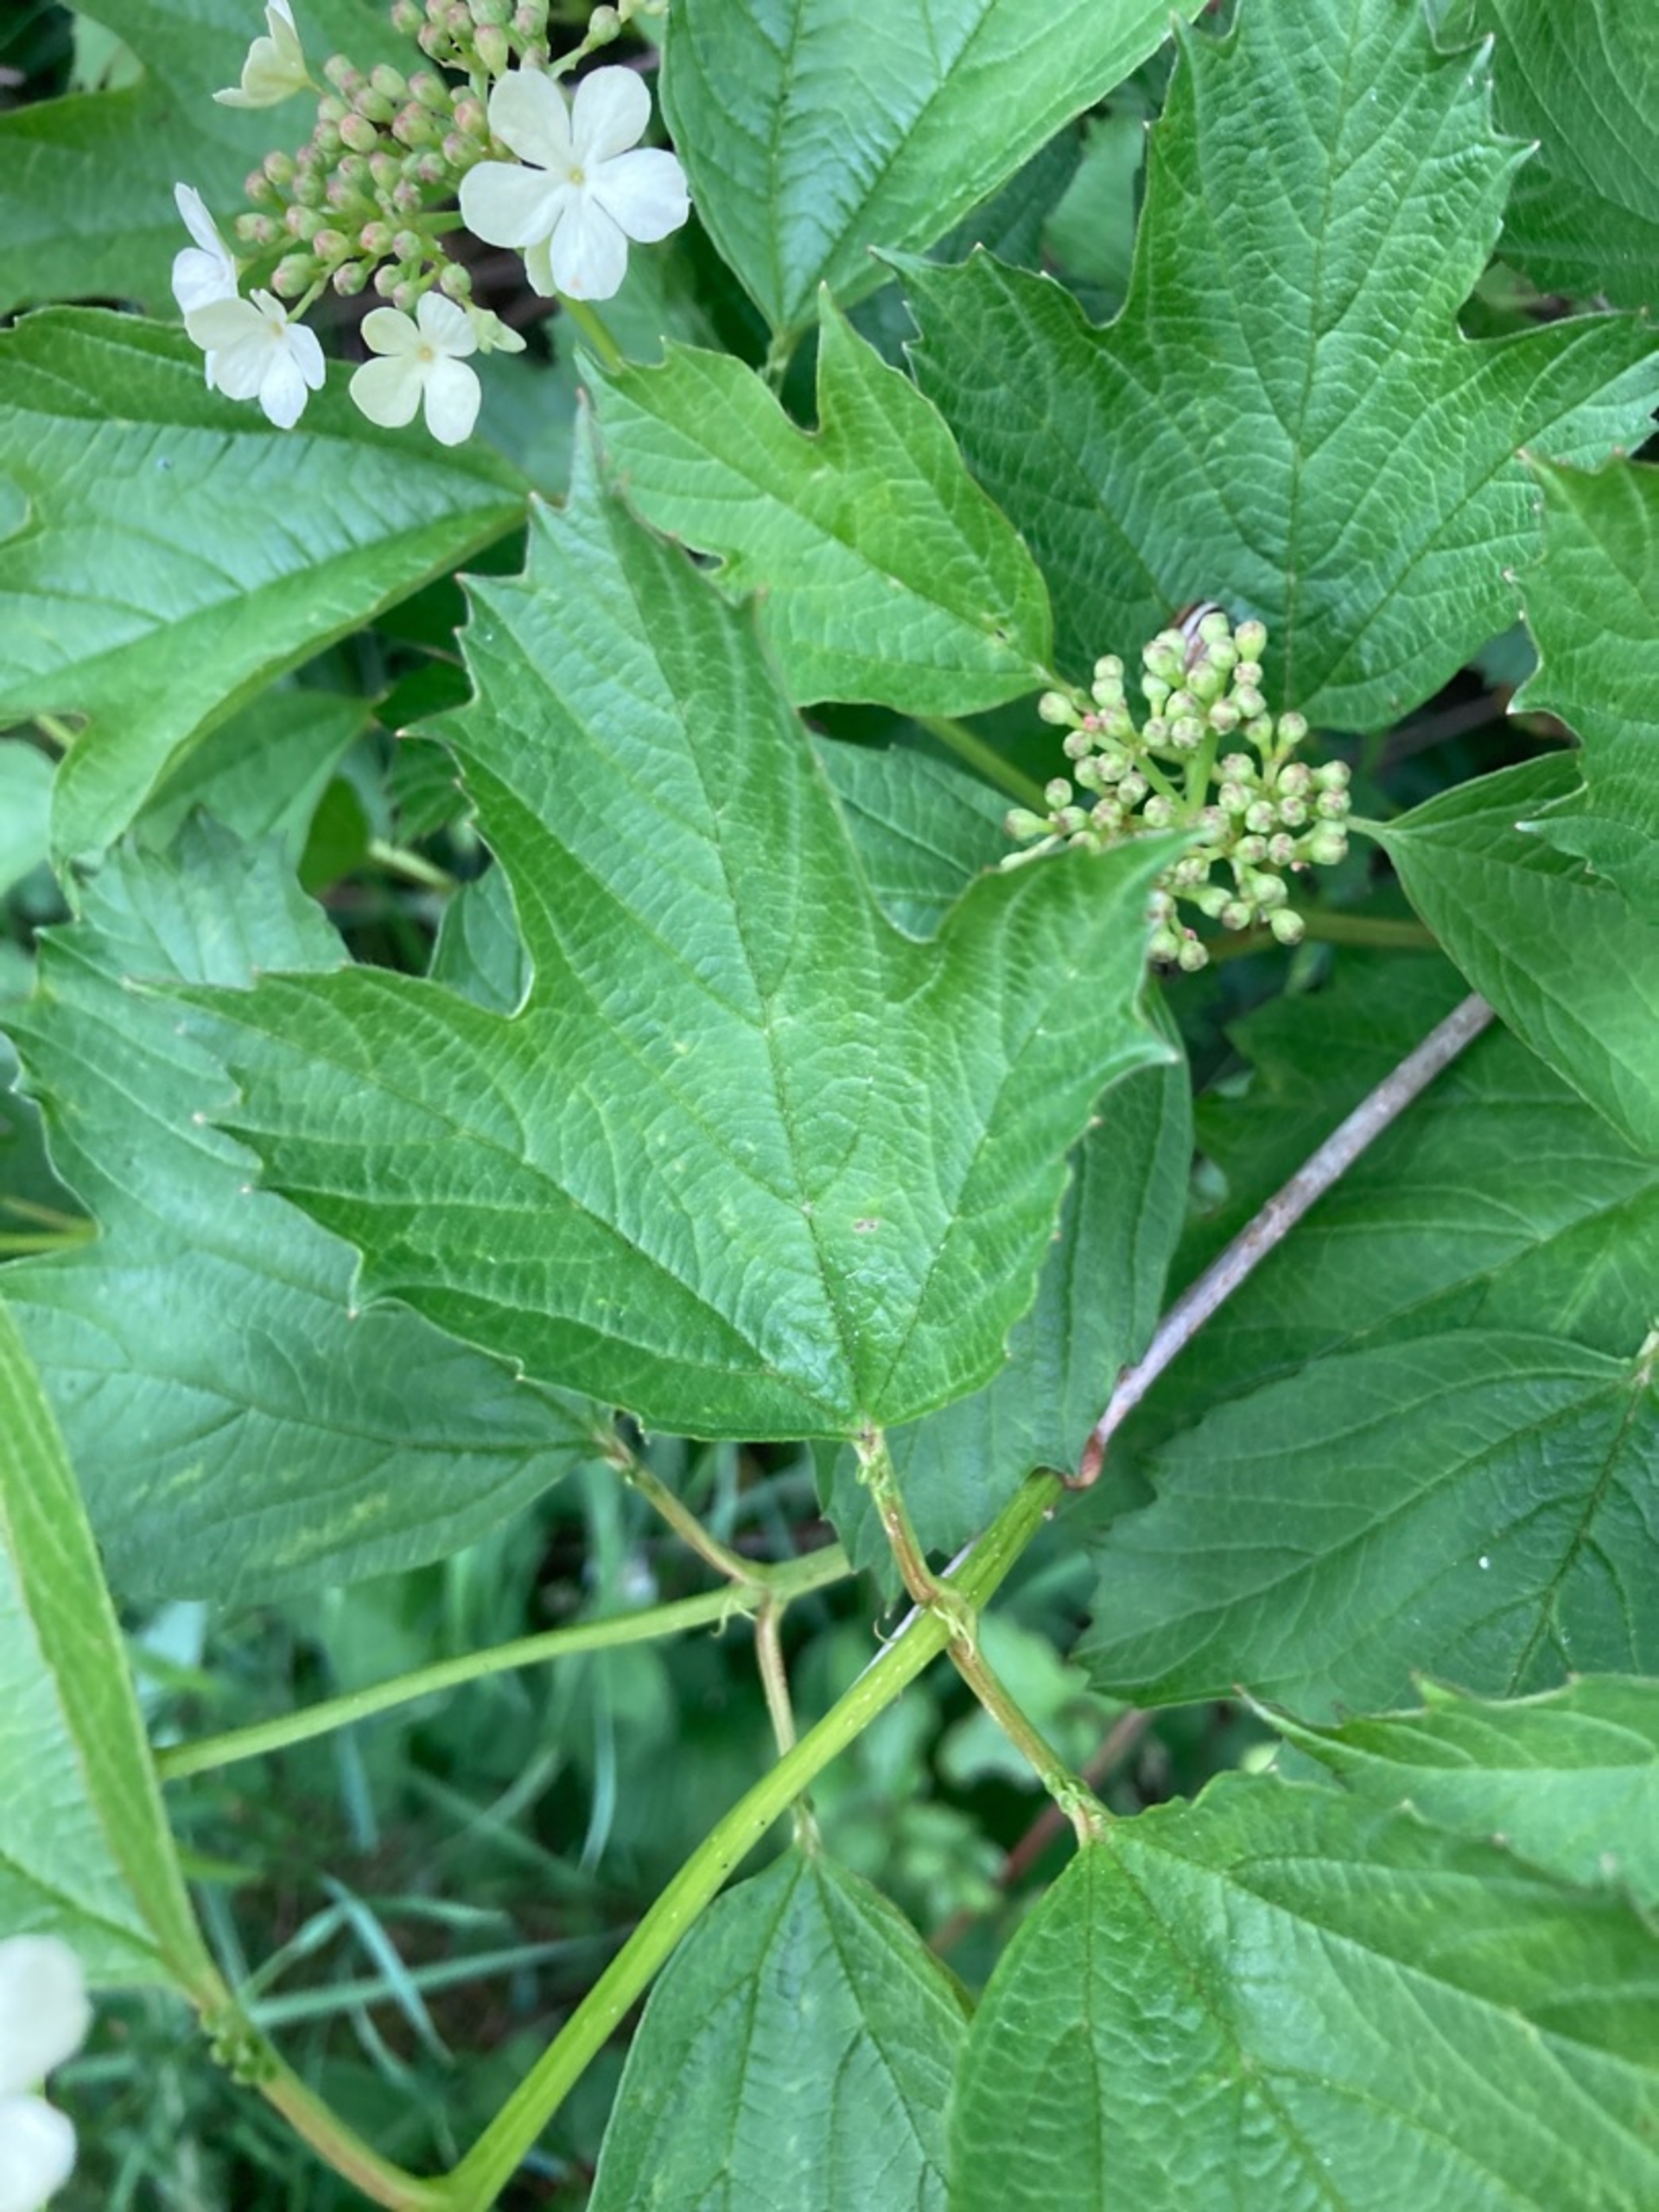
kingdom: Plantae
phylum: Tracheophyta
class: Magnoliopsida
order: Dipsacales
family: Viburnaceae
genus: Viburnum
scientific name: Viburnum opulus
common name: Kvalkved
